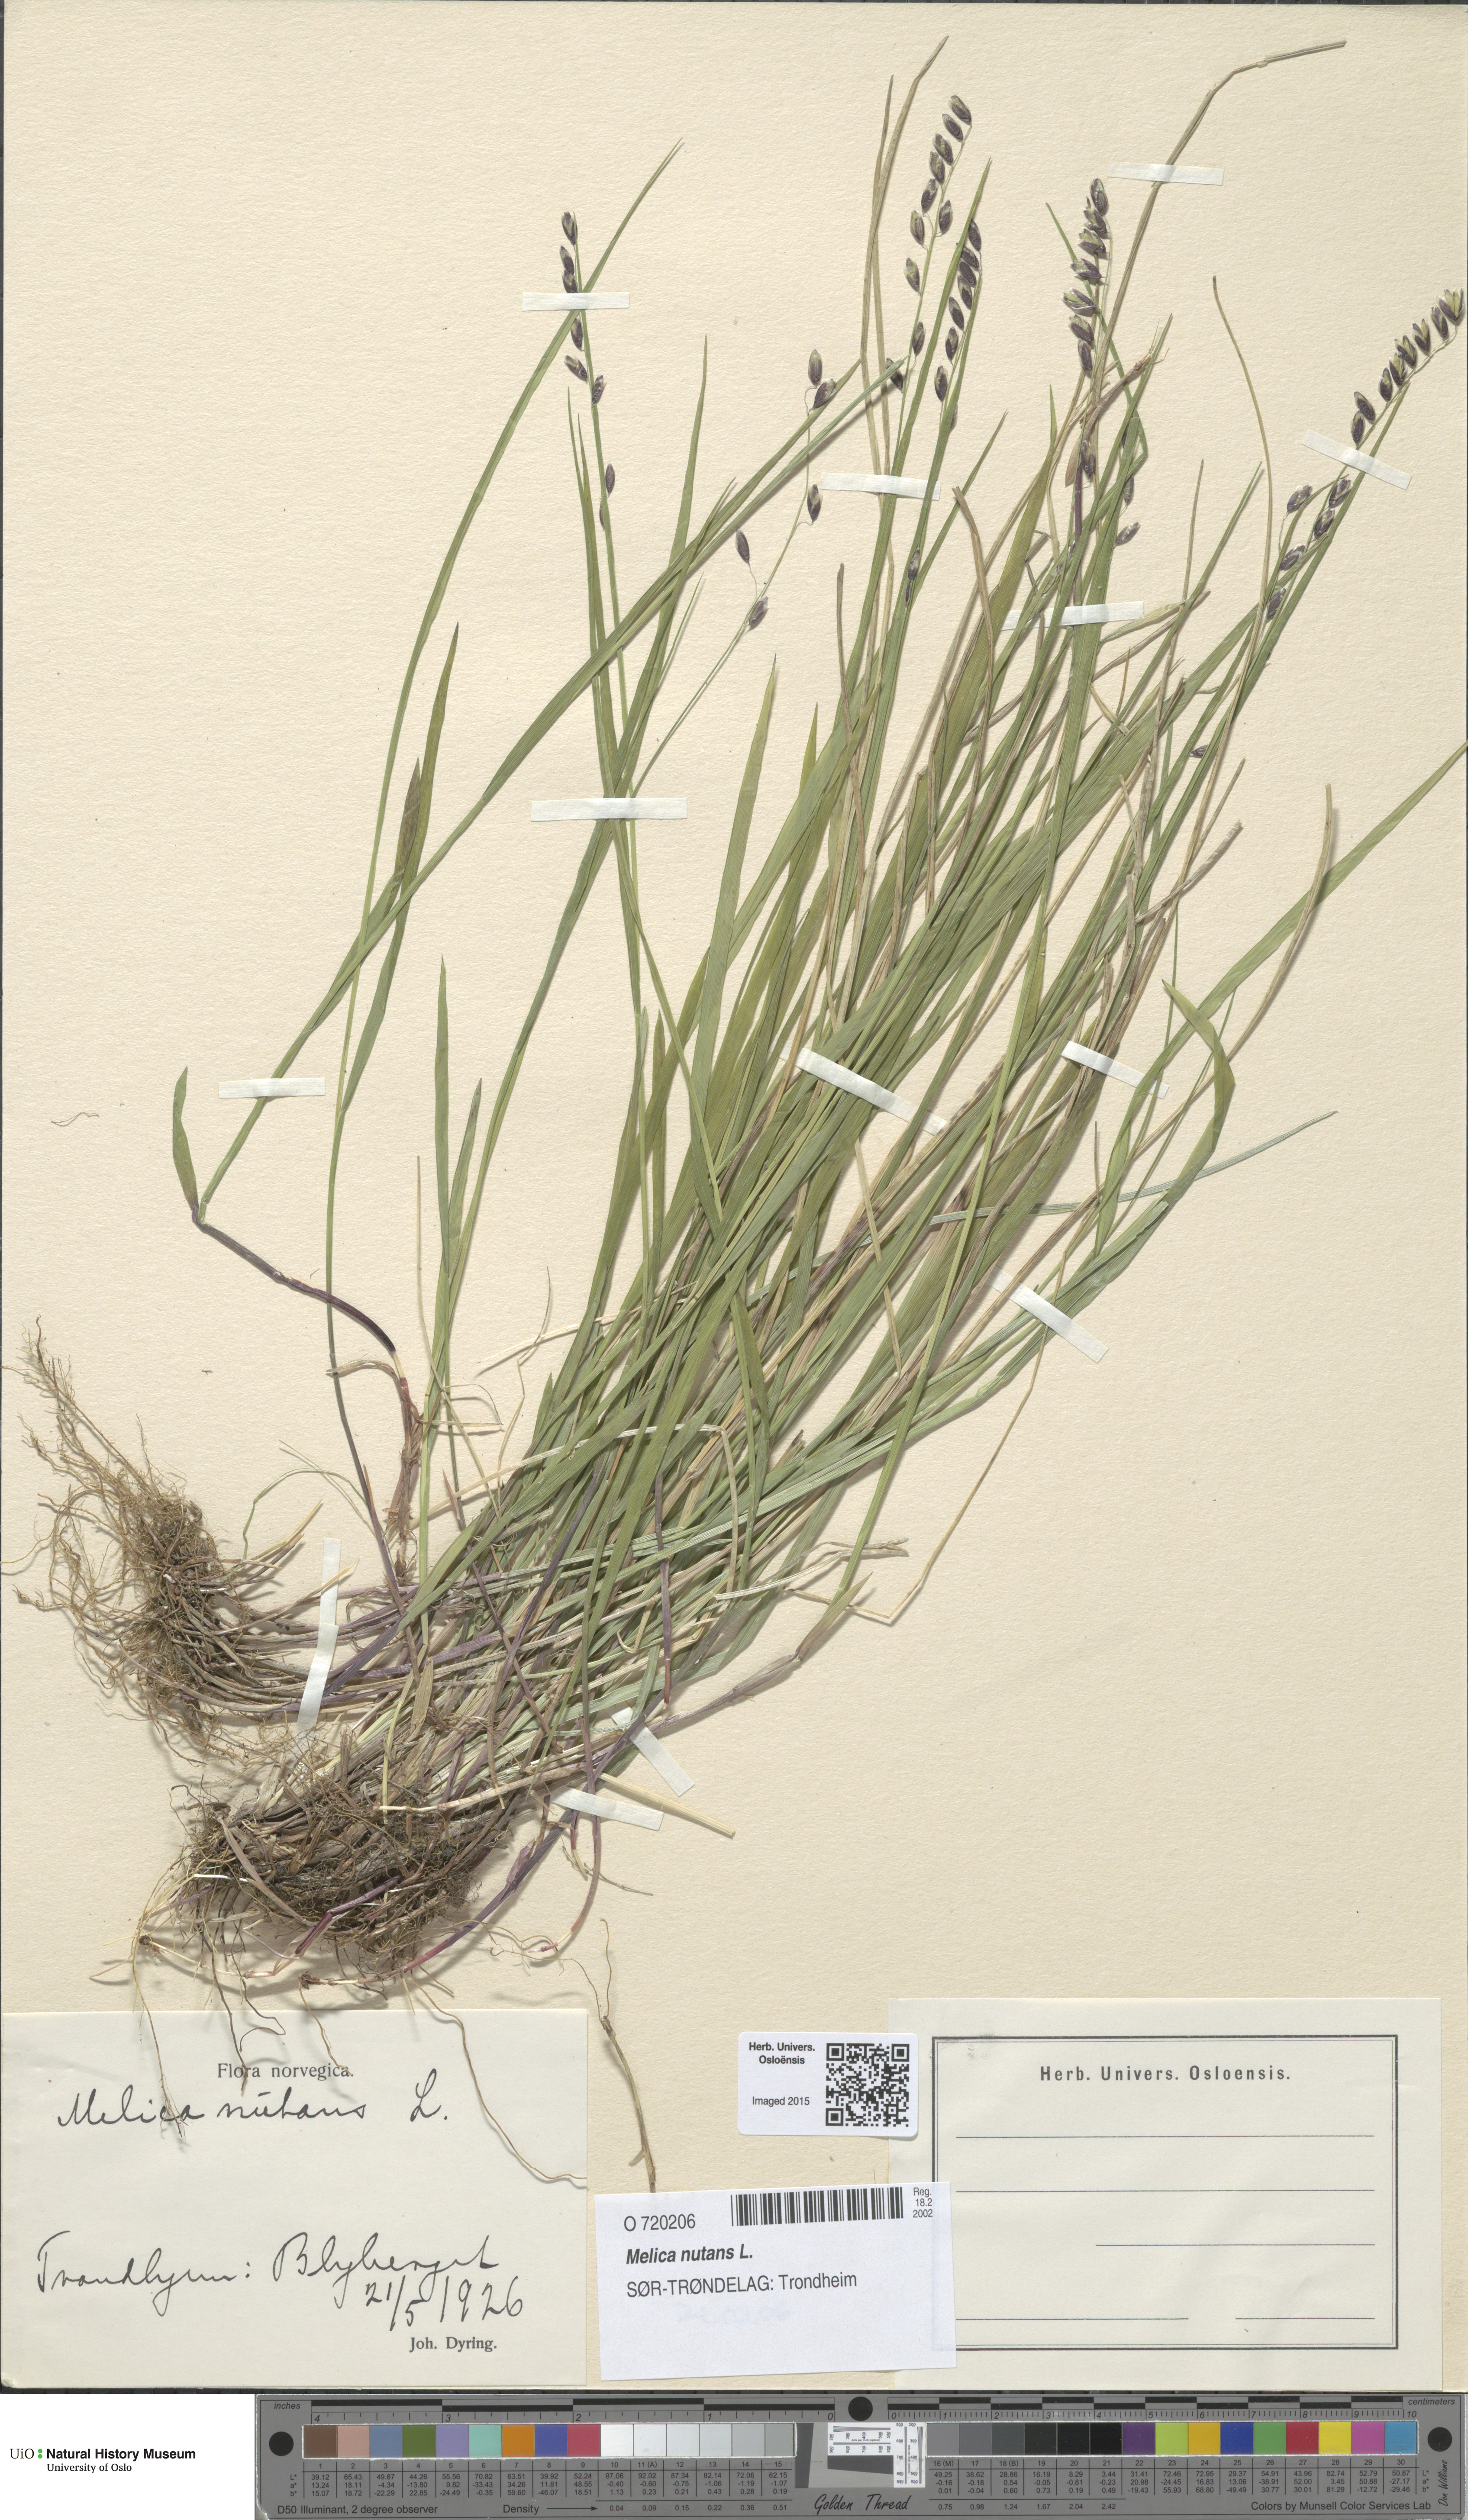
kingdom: Plantae
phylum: Tracheophyta
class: Liliopsida
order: Poales
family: Poaceae
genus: Melica
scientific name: Melica nutans
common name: Mountain melick
